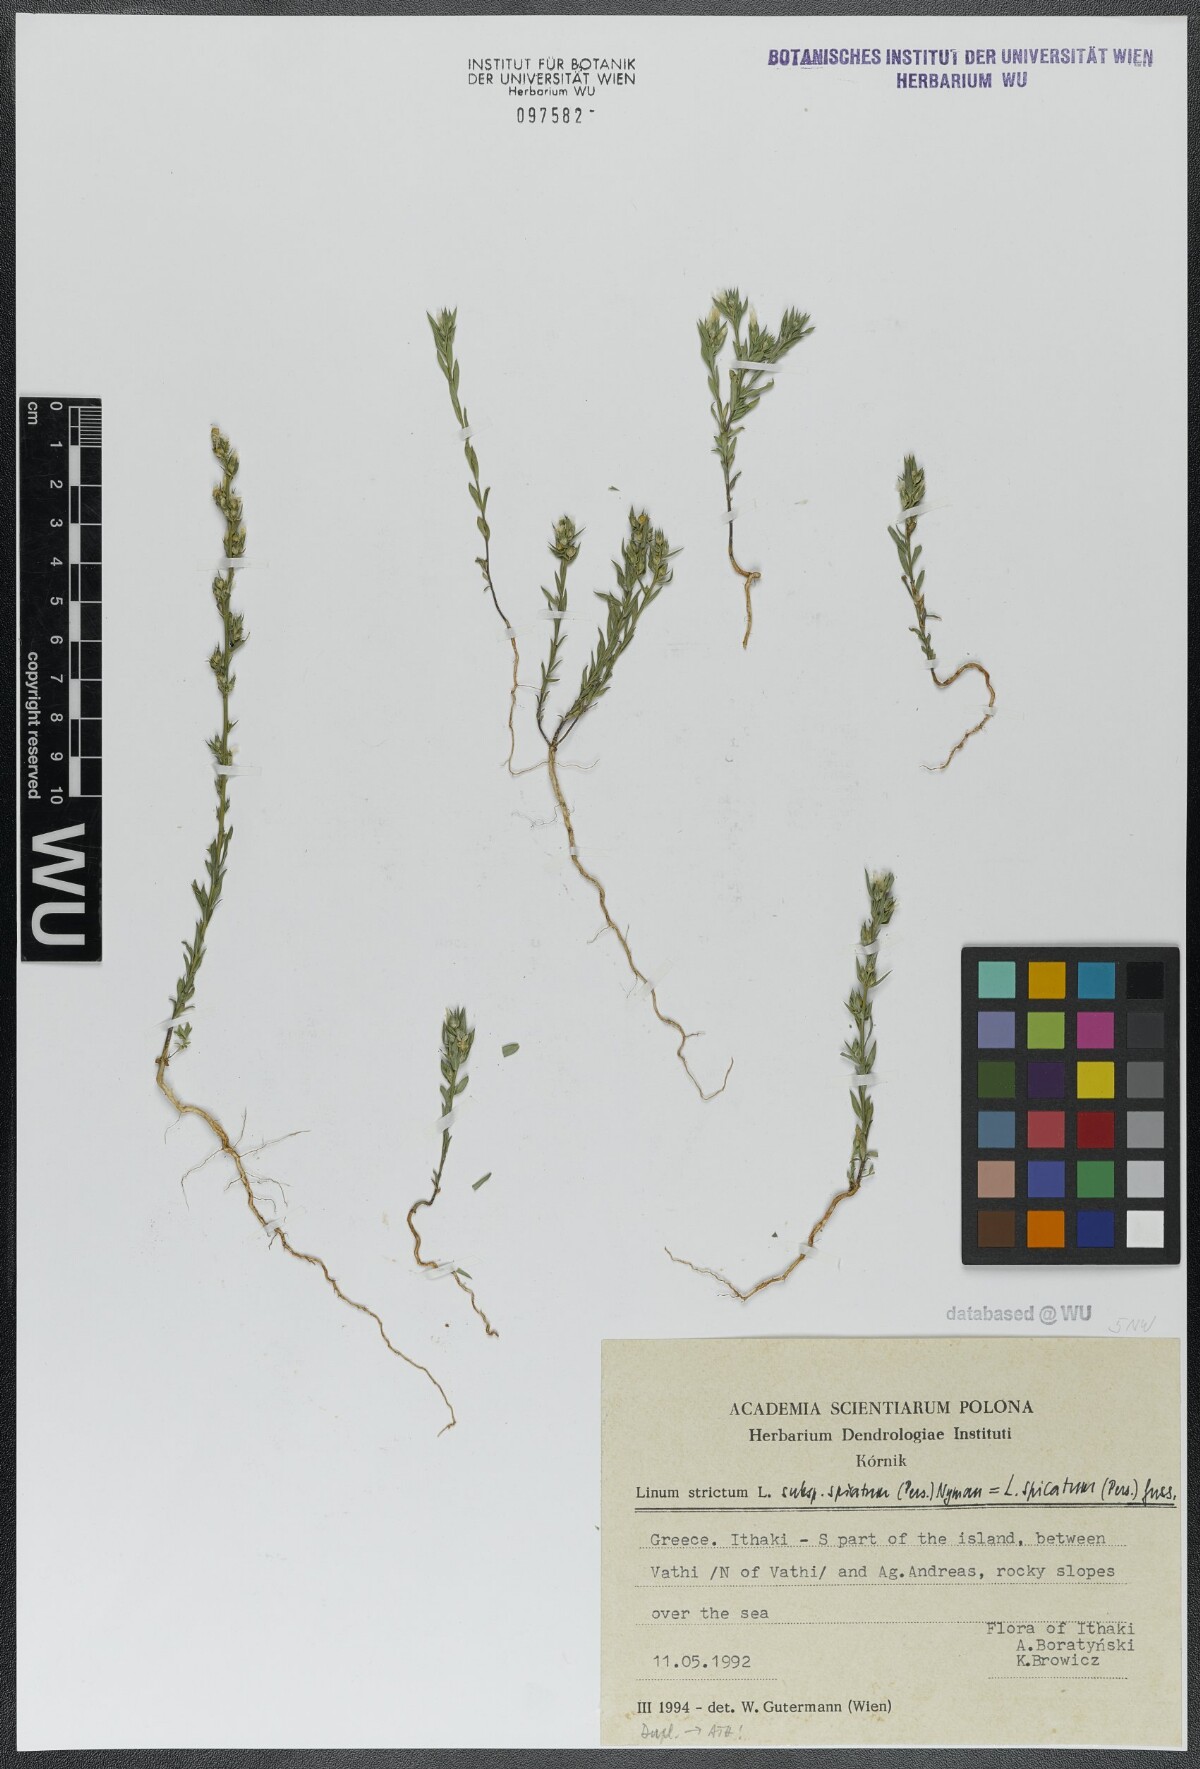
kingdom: Plantae
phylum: Tracheophyta
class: Magnoliopsida
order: Malpighiales
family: Linaceae
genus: Linum
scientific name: Linum strictum
